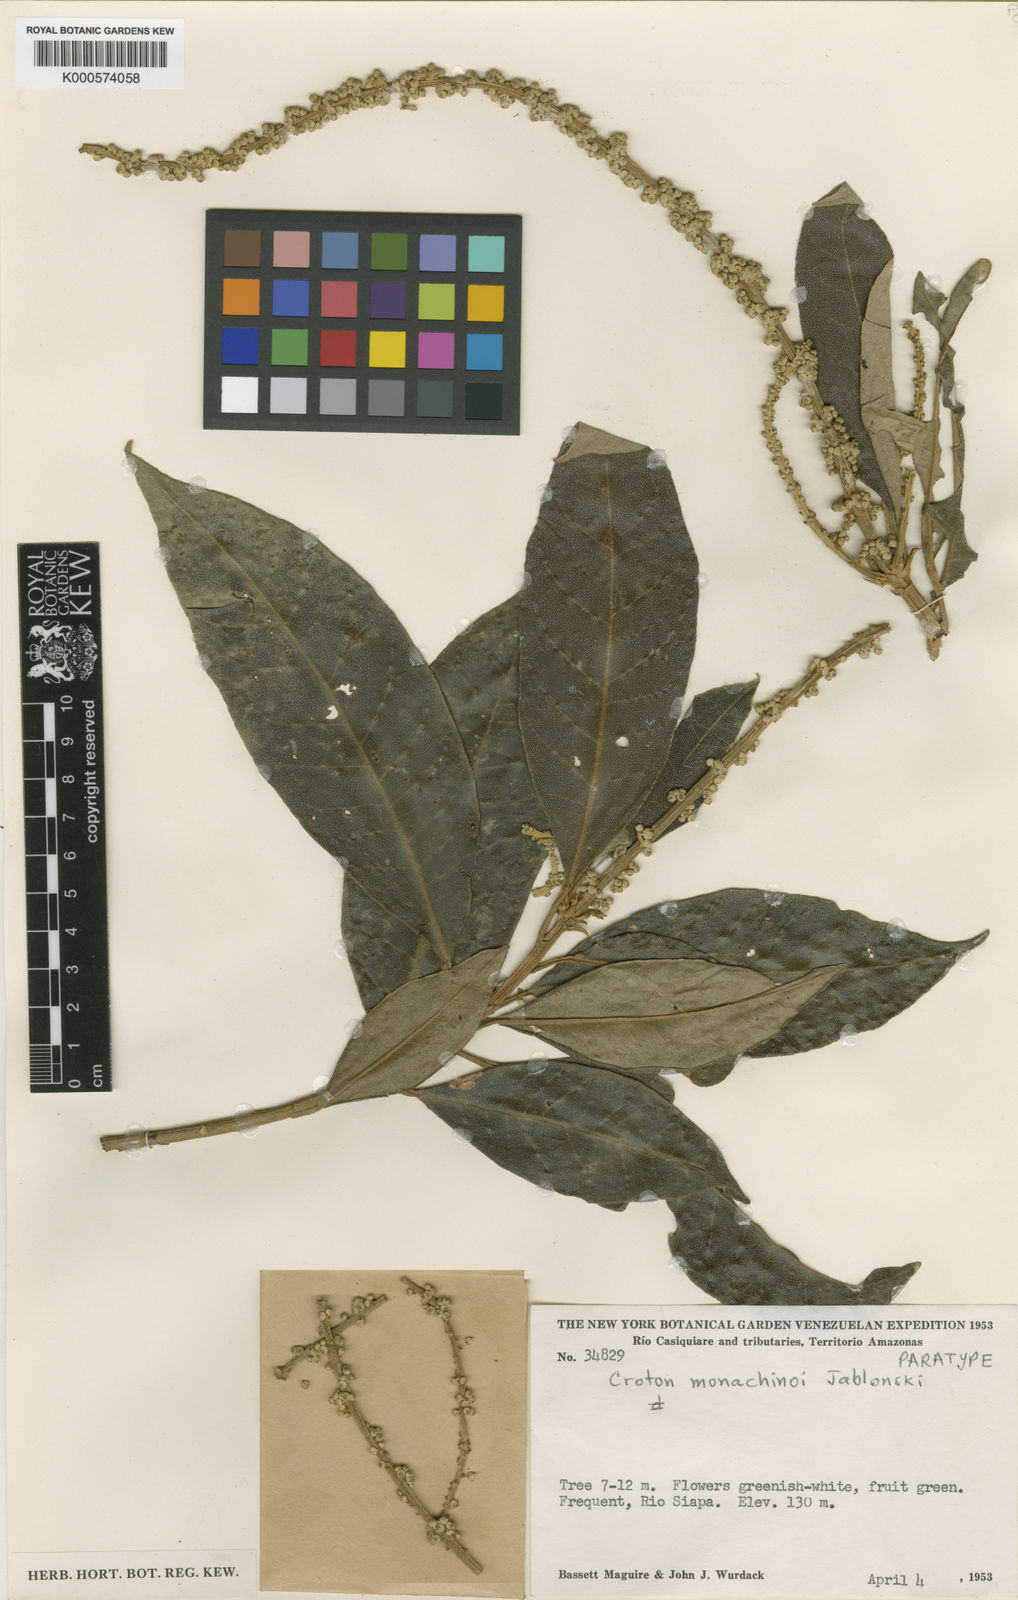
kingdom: Plantae
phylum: Tracheophyta
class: Magnoliopsida
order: Malpighiales
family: Euphorbiaceae
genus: Croton
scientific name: Croton cuneatus
